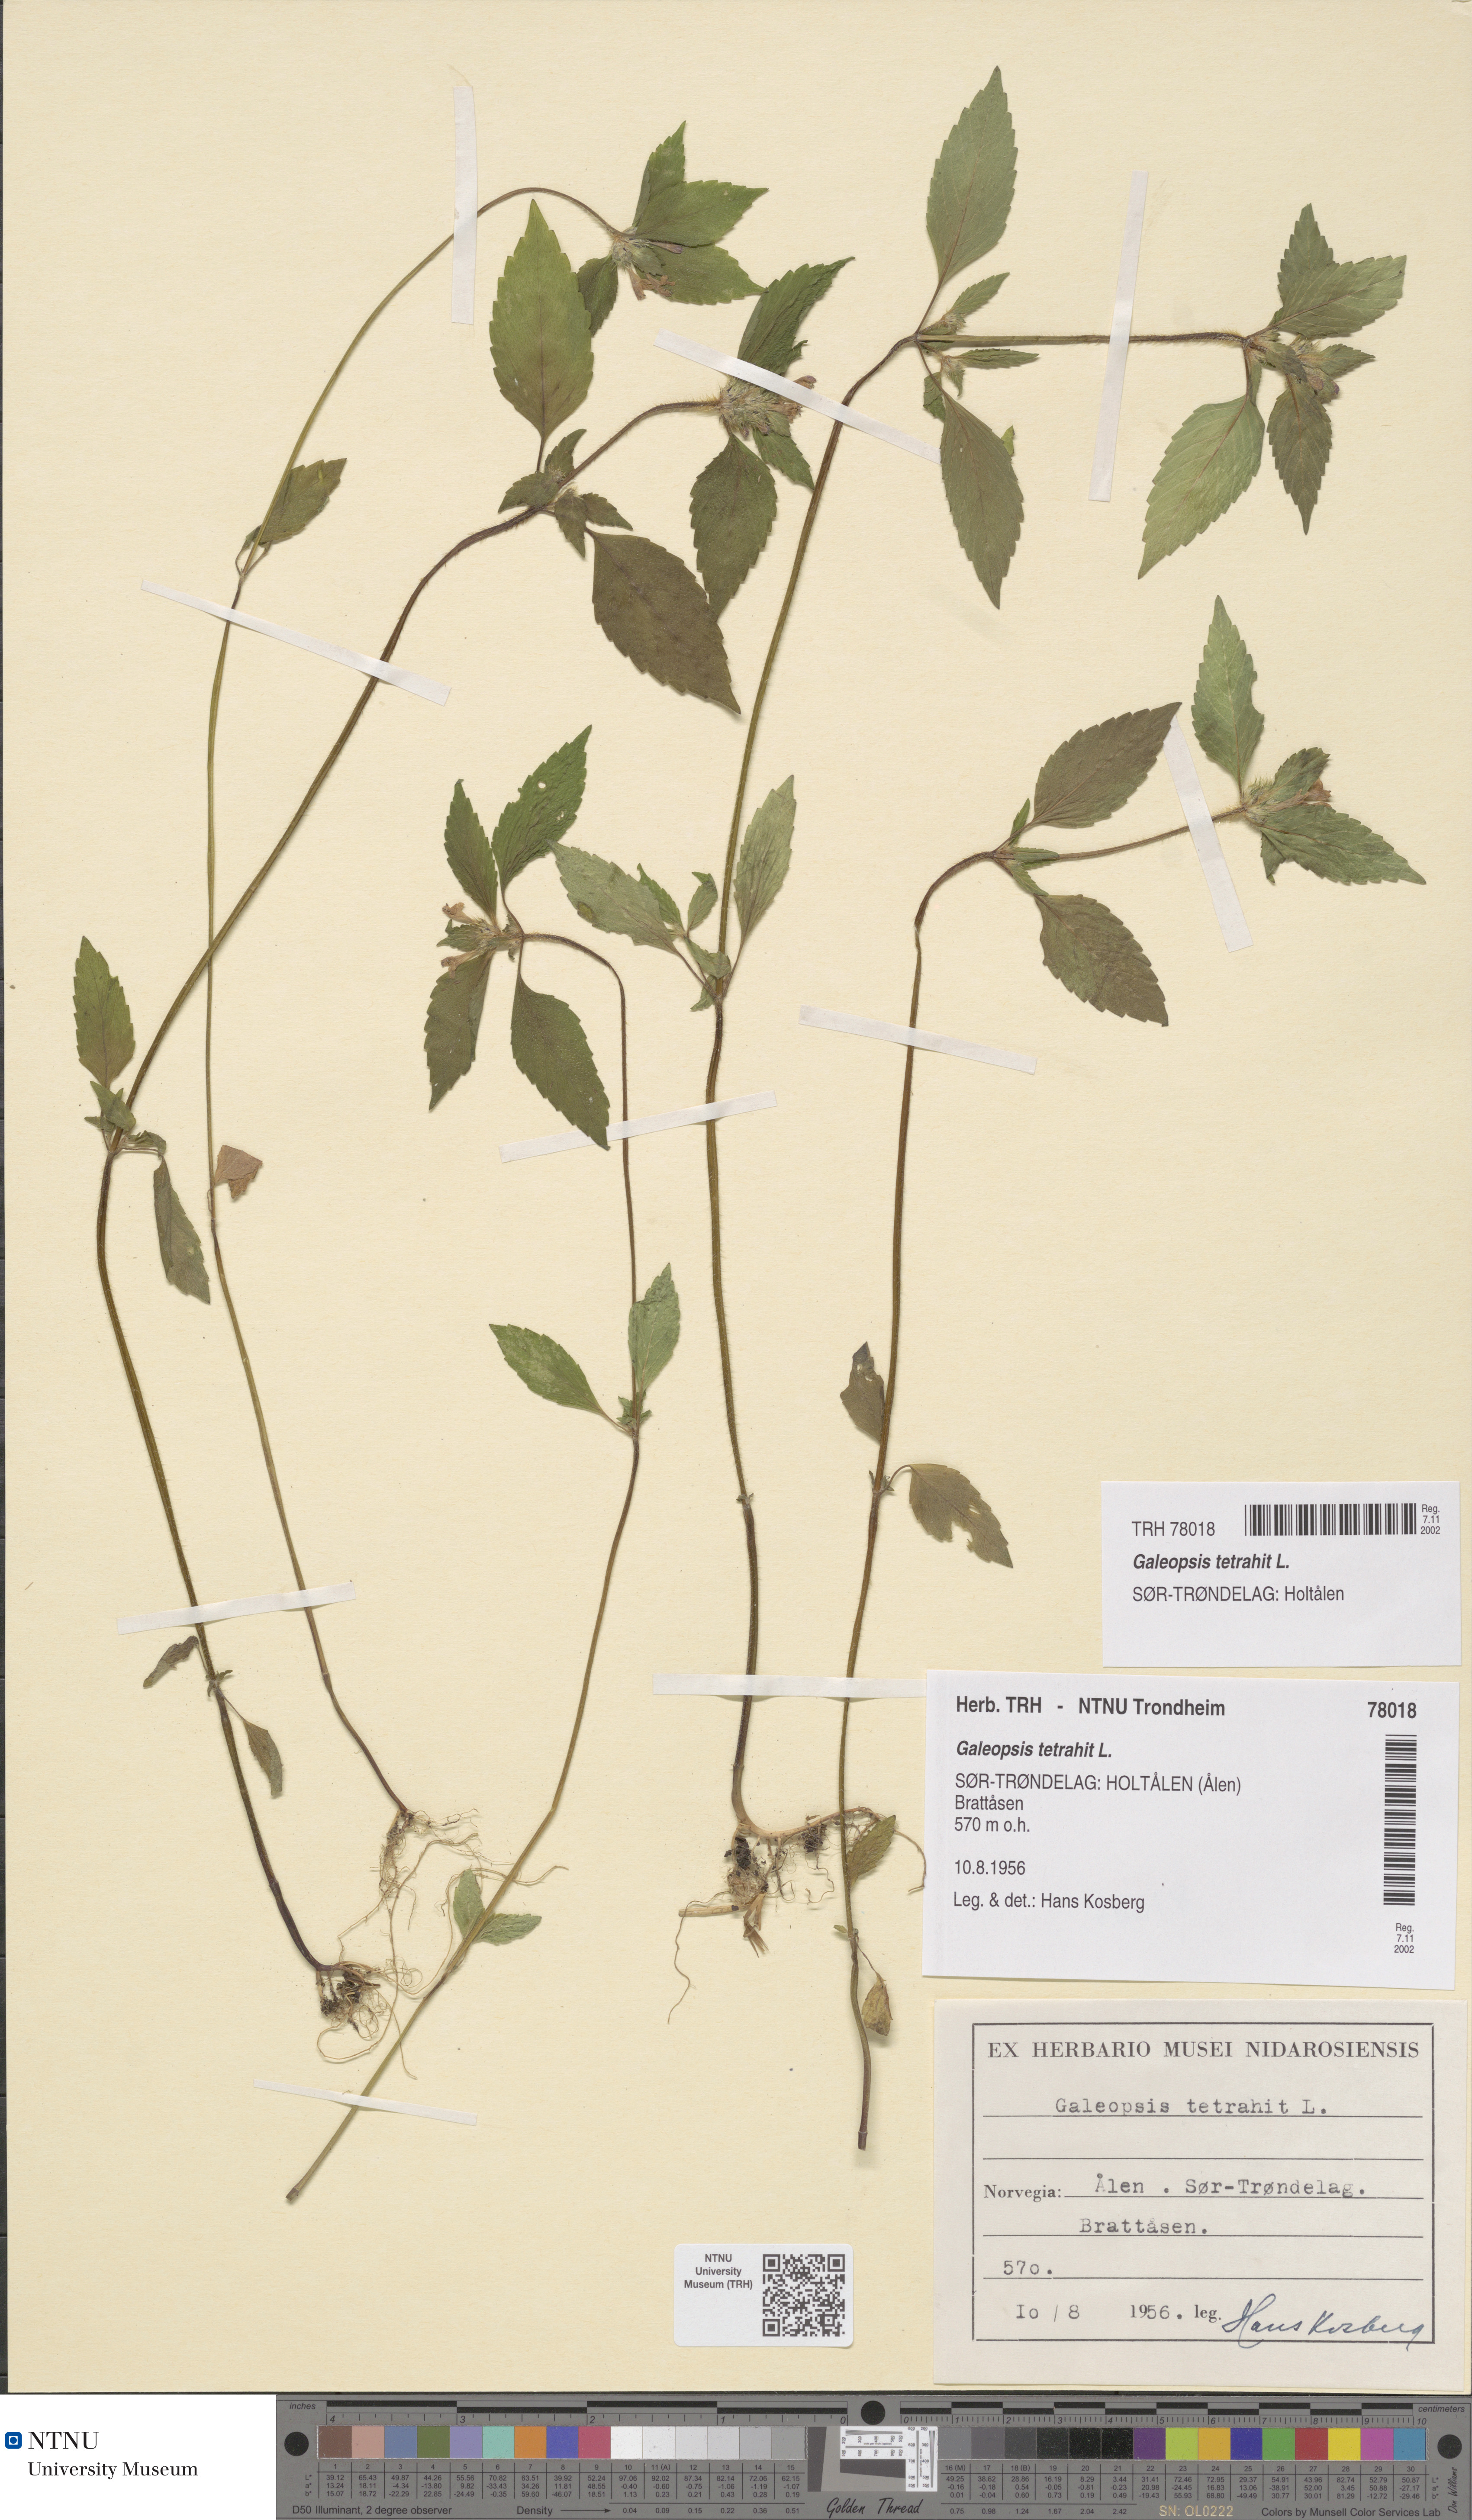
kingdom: Plantae
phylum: Tracheophyta
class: Magnoliopsida
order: Lamiales
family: Lamiaceae
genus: Galeopsis
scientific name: Galeopsis tetrahit
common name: Common hemp-nettle
